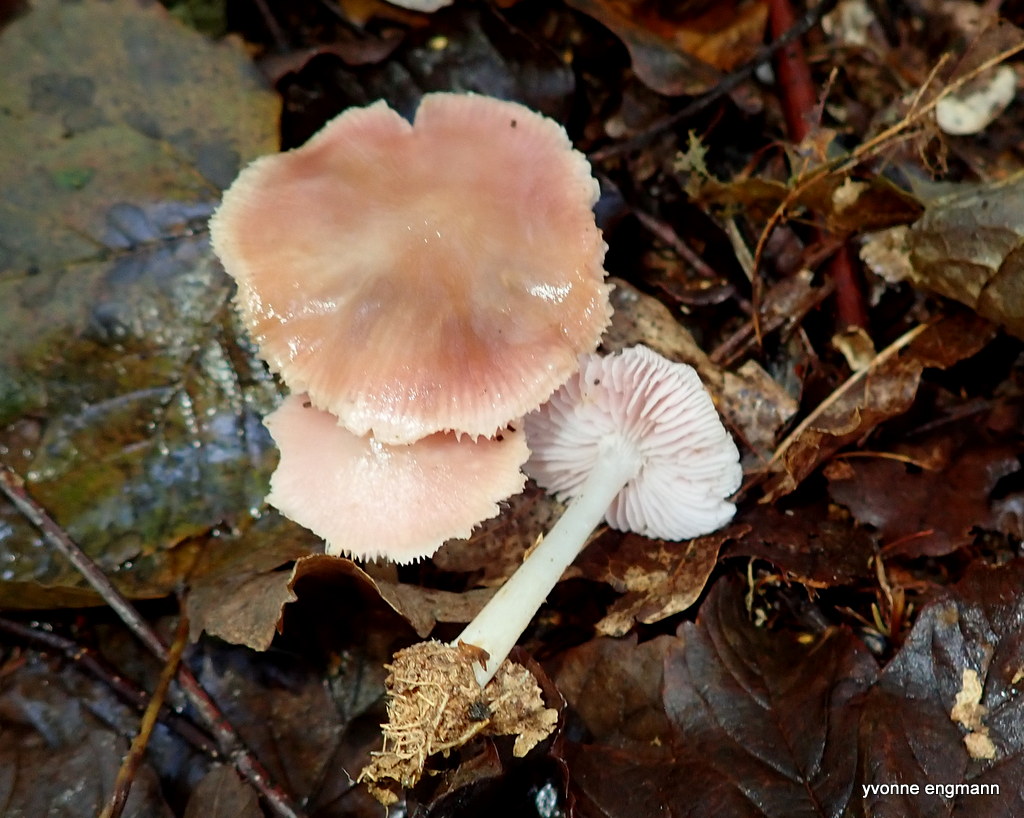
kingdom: Fungi
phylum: Basidiomycota
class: Agaricomycetes
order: Agaricales
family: Mycenaceae
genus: Mycena
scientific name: Mycena rosea
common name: rosa huesvamp
